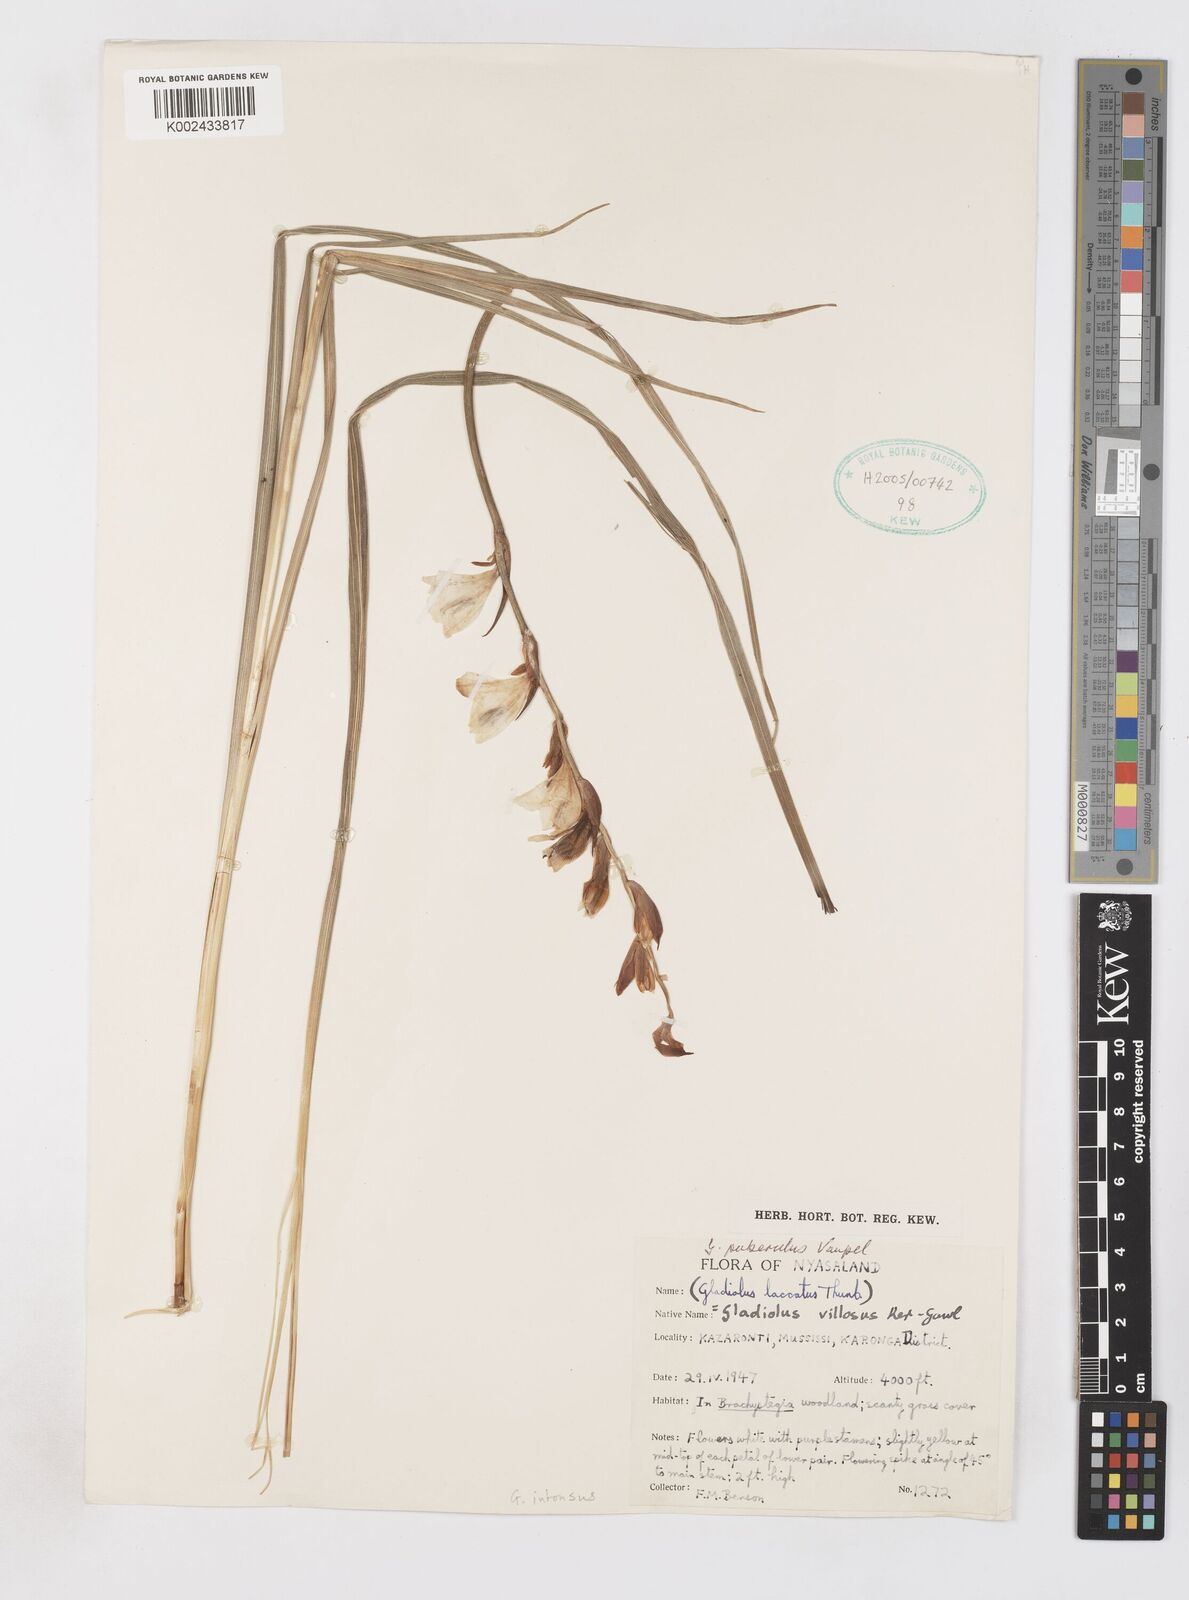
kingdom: Plantae
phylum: Tracheophyta
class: Liliopsida
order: Asparagales
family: Iridaceae
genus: Gladiolus
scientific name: Gladiolus intonsus
